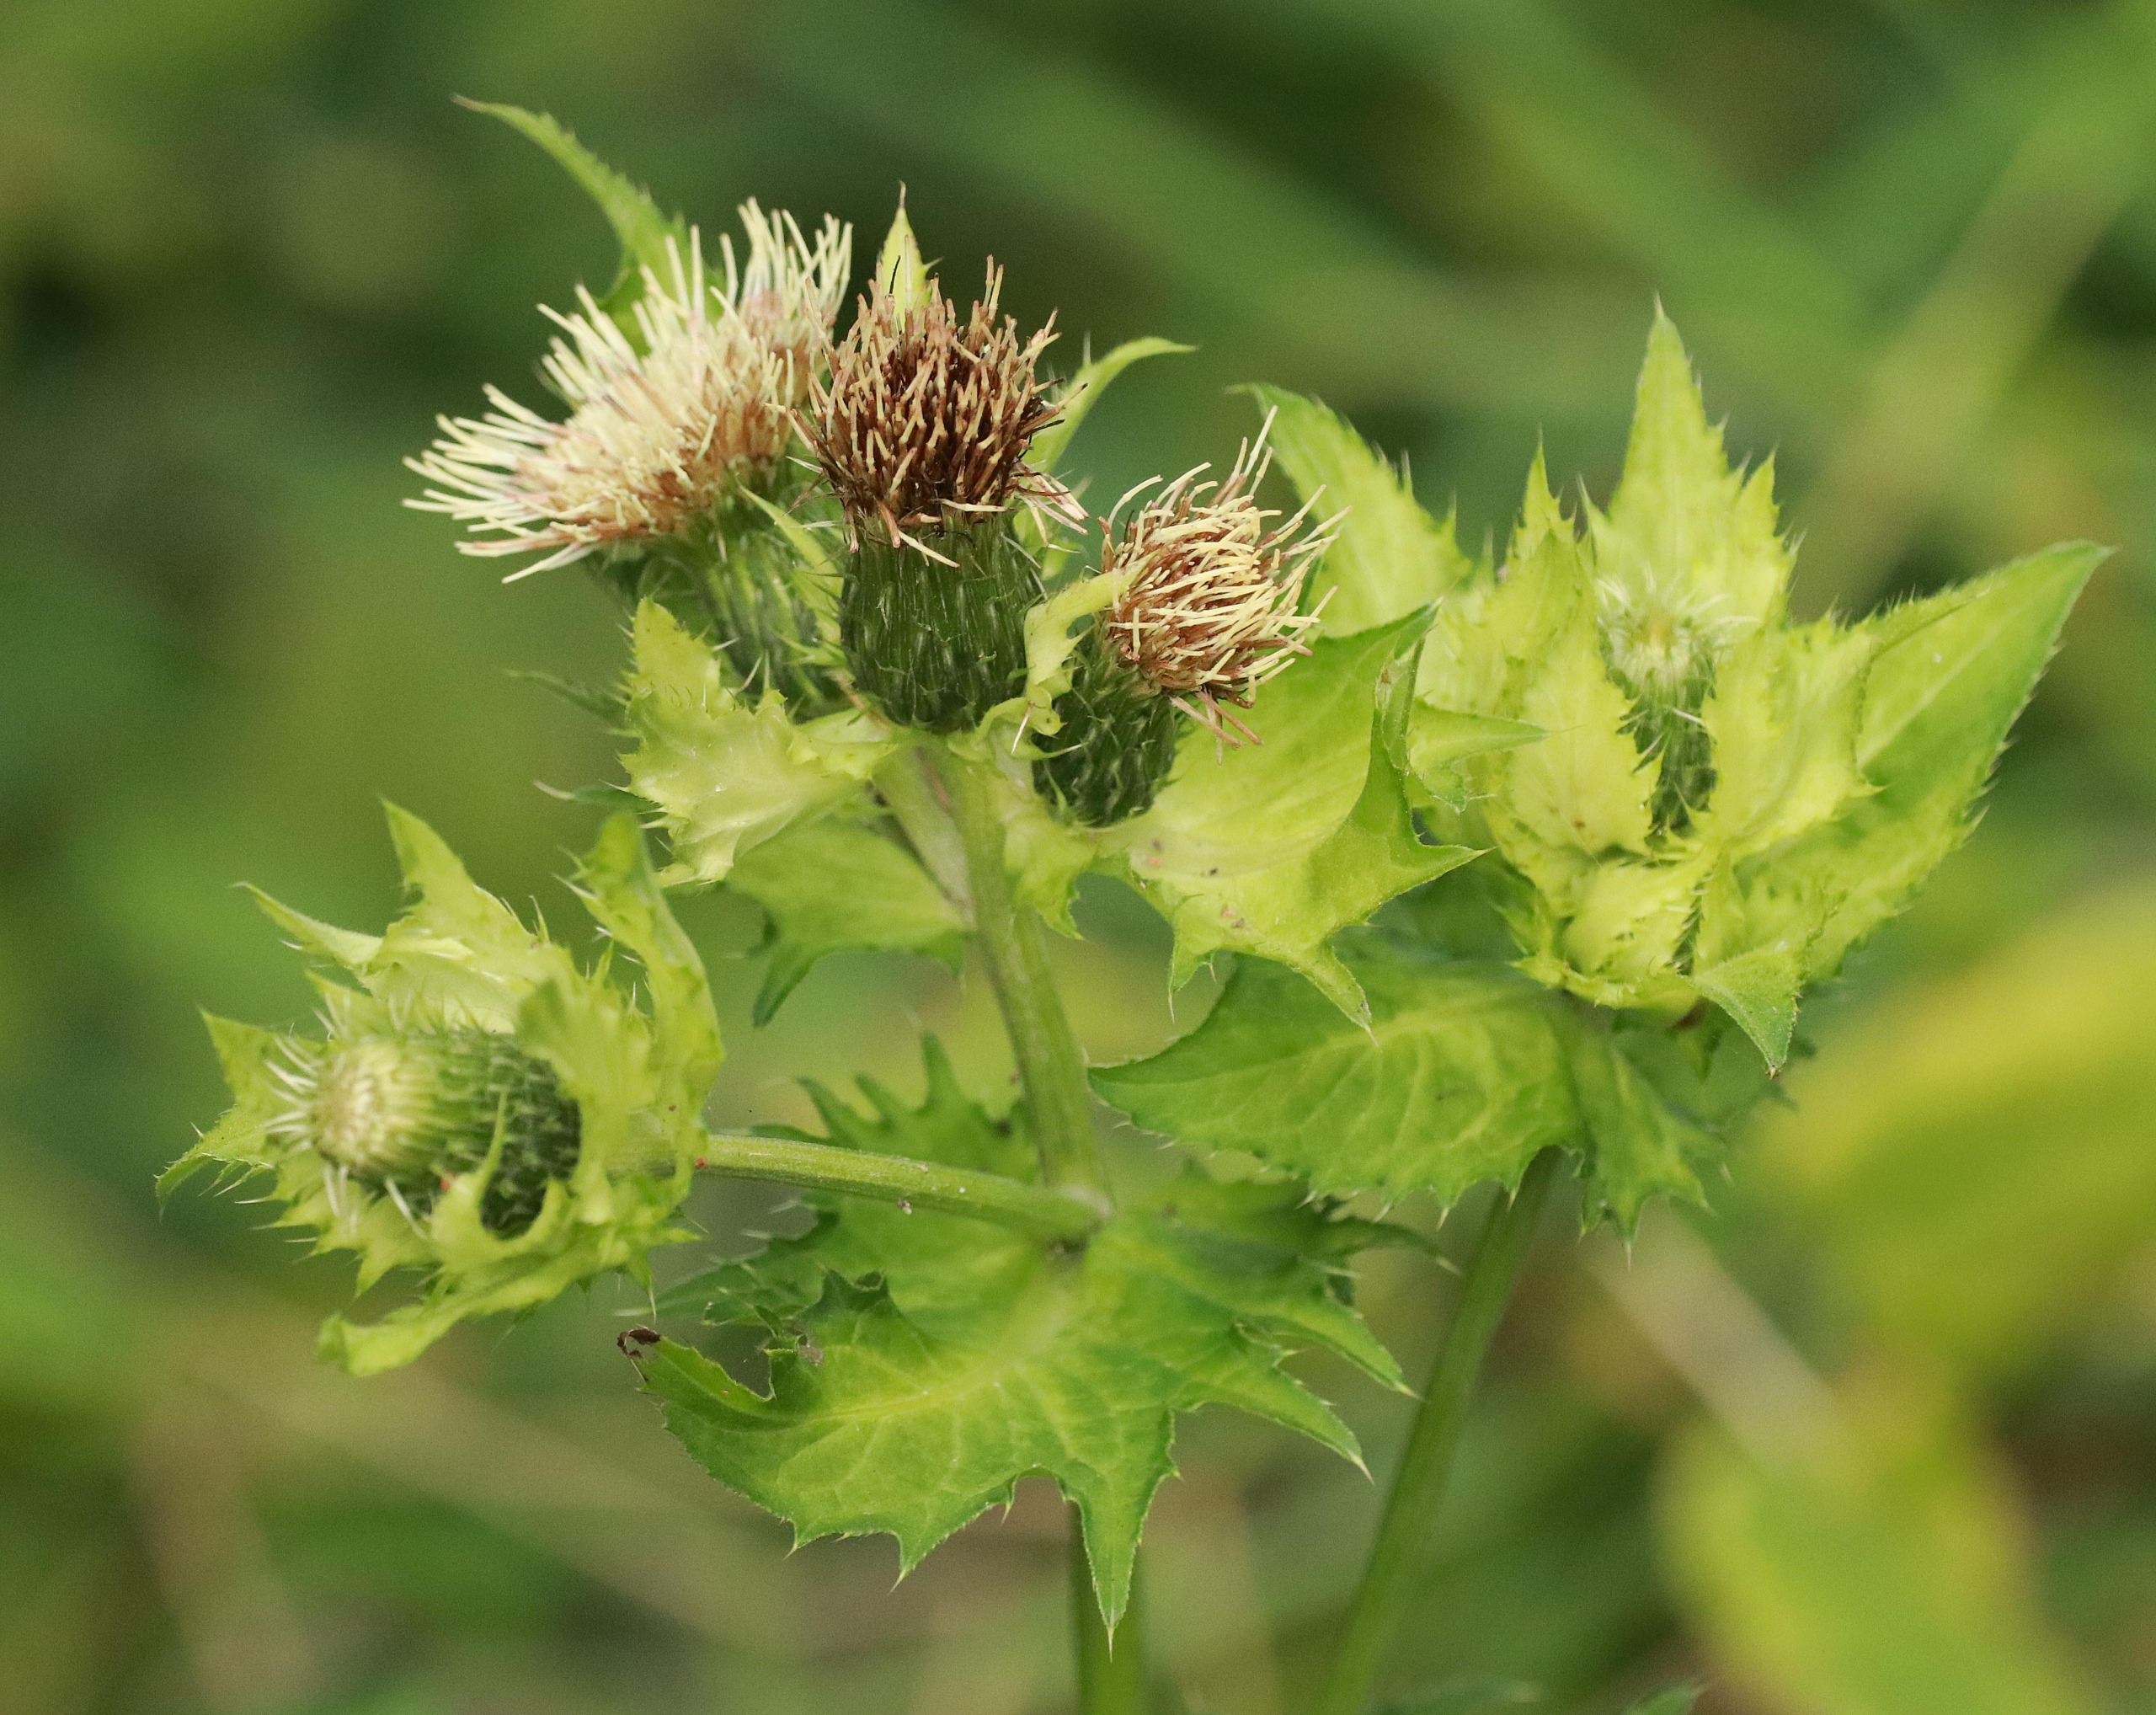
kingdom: Plantae
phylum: Tracheophyta
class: Magnoliopsida
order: Asterales
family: Asteraceae
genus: Cirsium
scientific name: Cirsium oleraceum
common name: Kål-tidsel
